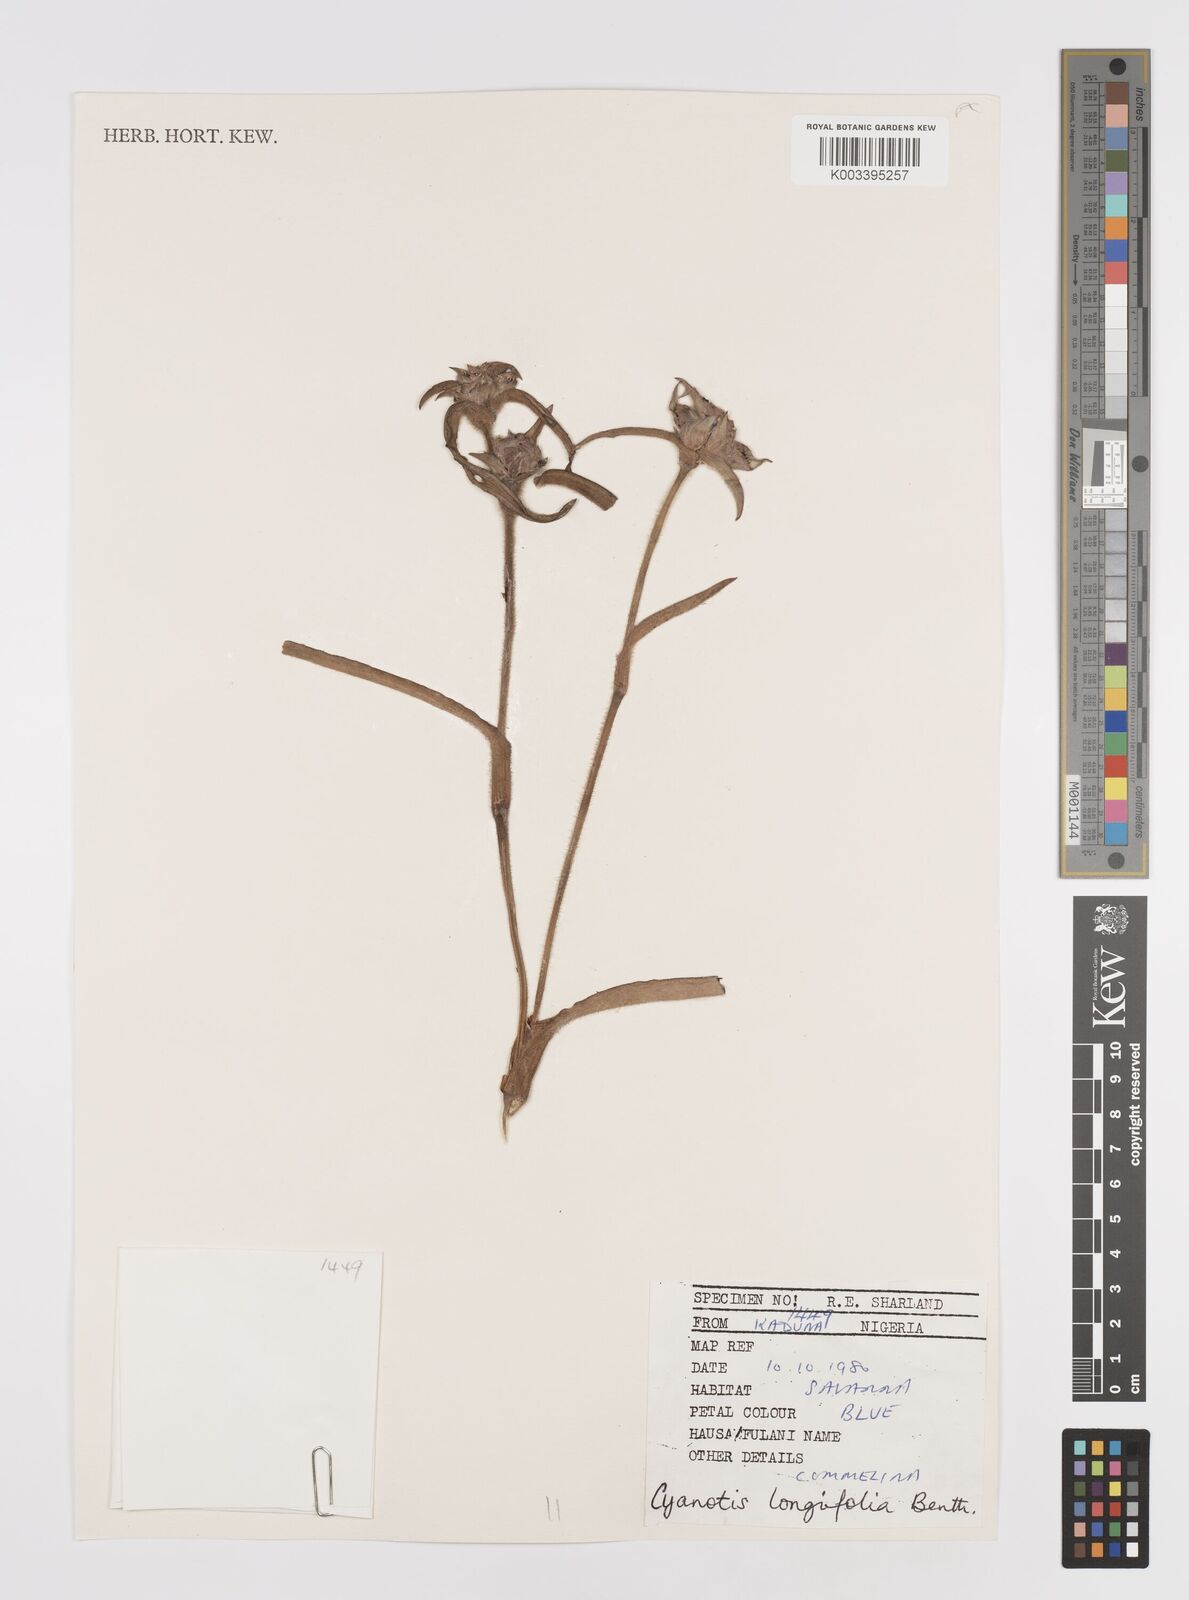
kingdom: Plantae
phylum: Tracheophyta
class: Liliopsida
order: Commelinales
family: Commelinaceae
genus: Cyanotis
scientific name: Cyanotis
